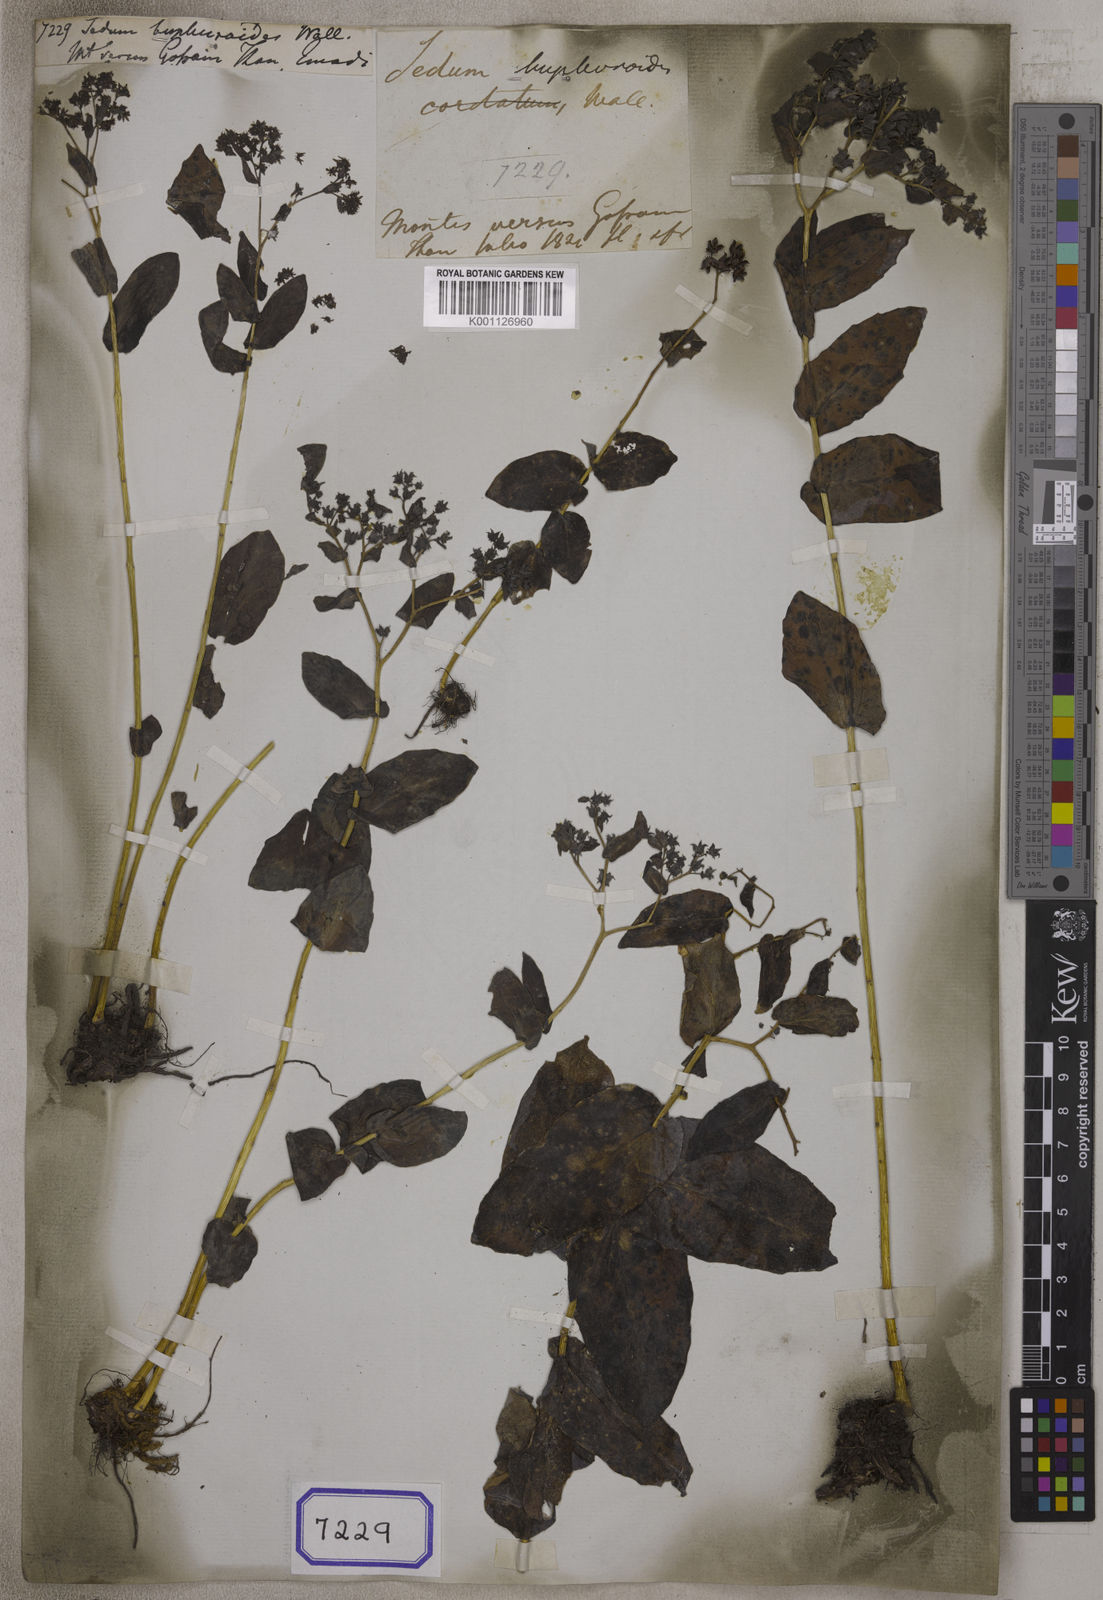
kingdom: Plantae
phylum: Tracheophyta
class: Magnoliopsida
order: Saxifragales
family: Crassulaceae
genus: Sedum
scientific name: Sedum
